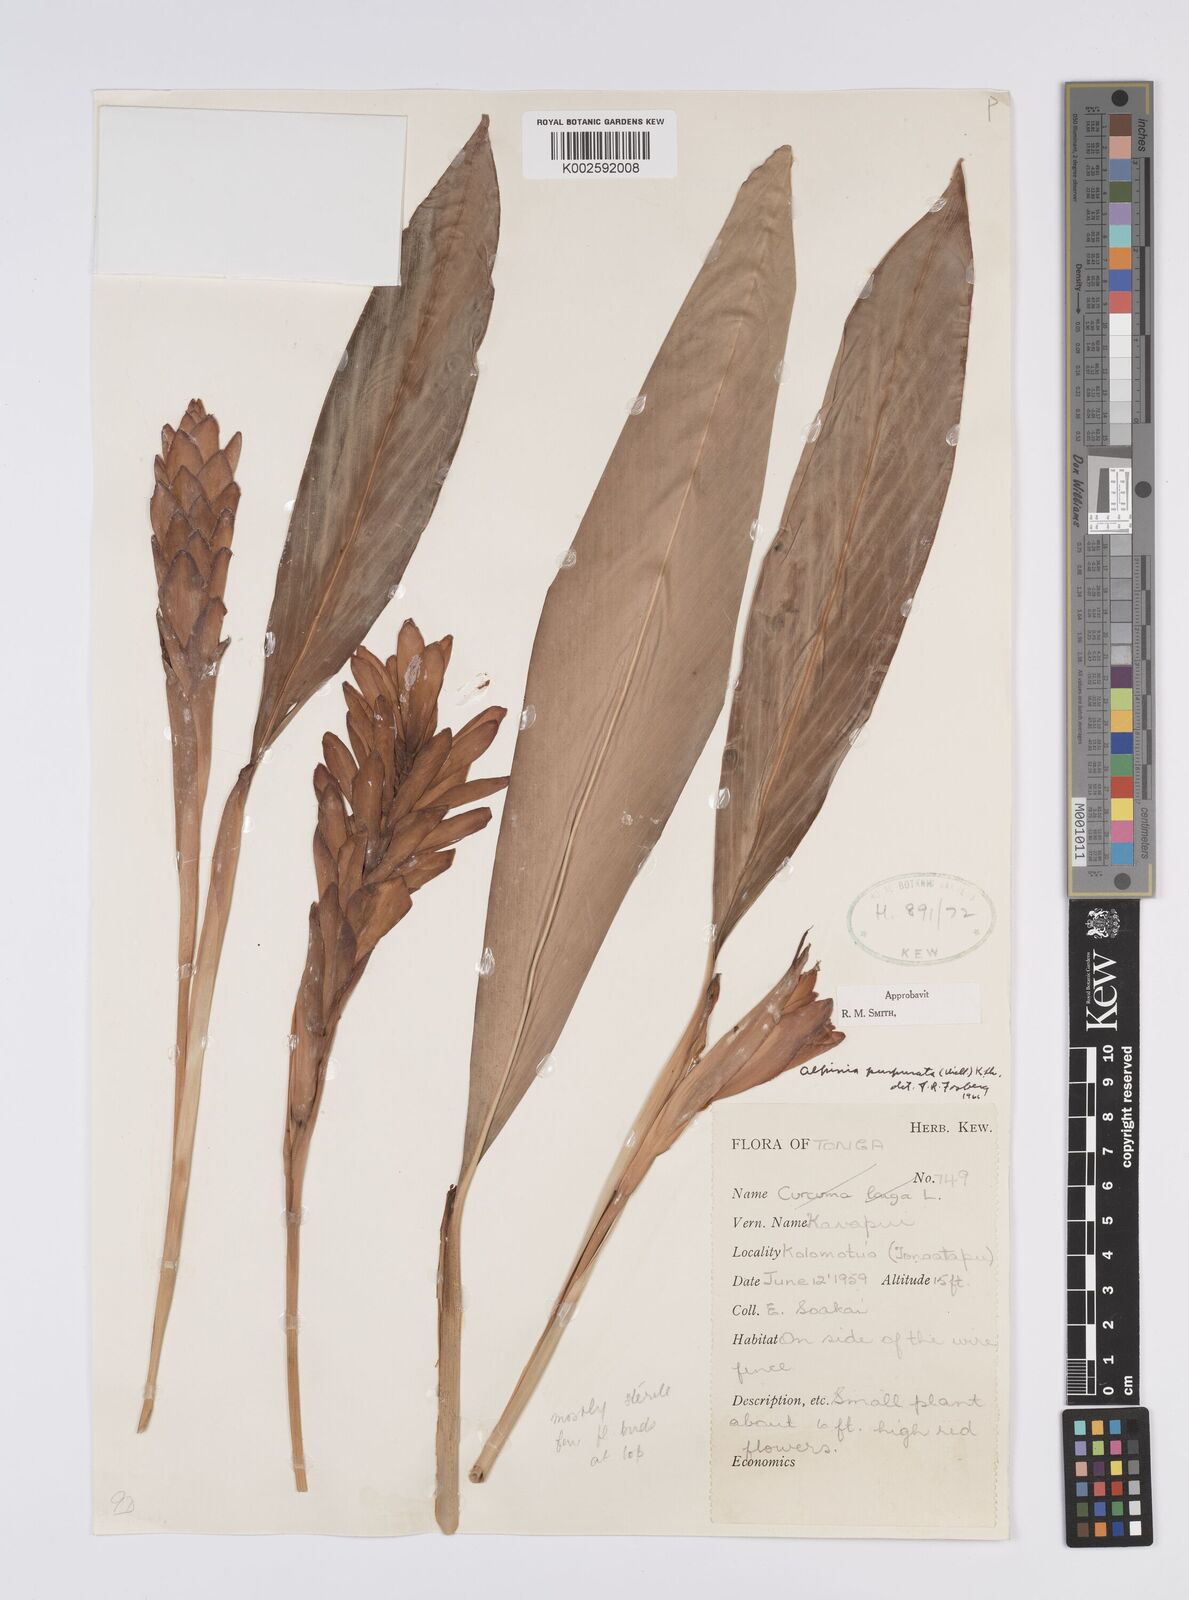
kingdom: Plantae
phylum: Tracheophyta
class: Liliopsida
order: Zingiberales
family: Zingiberaceae
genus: Alpinia
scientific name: Alpinia purpurata
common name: Red ginger
